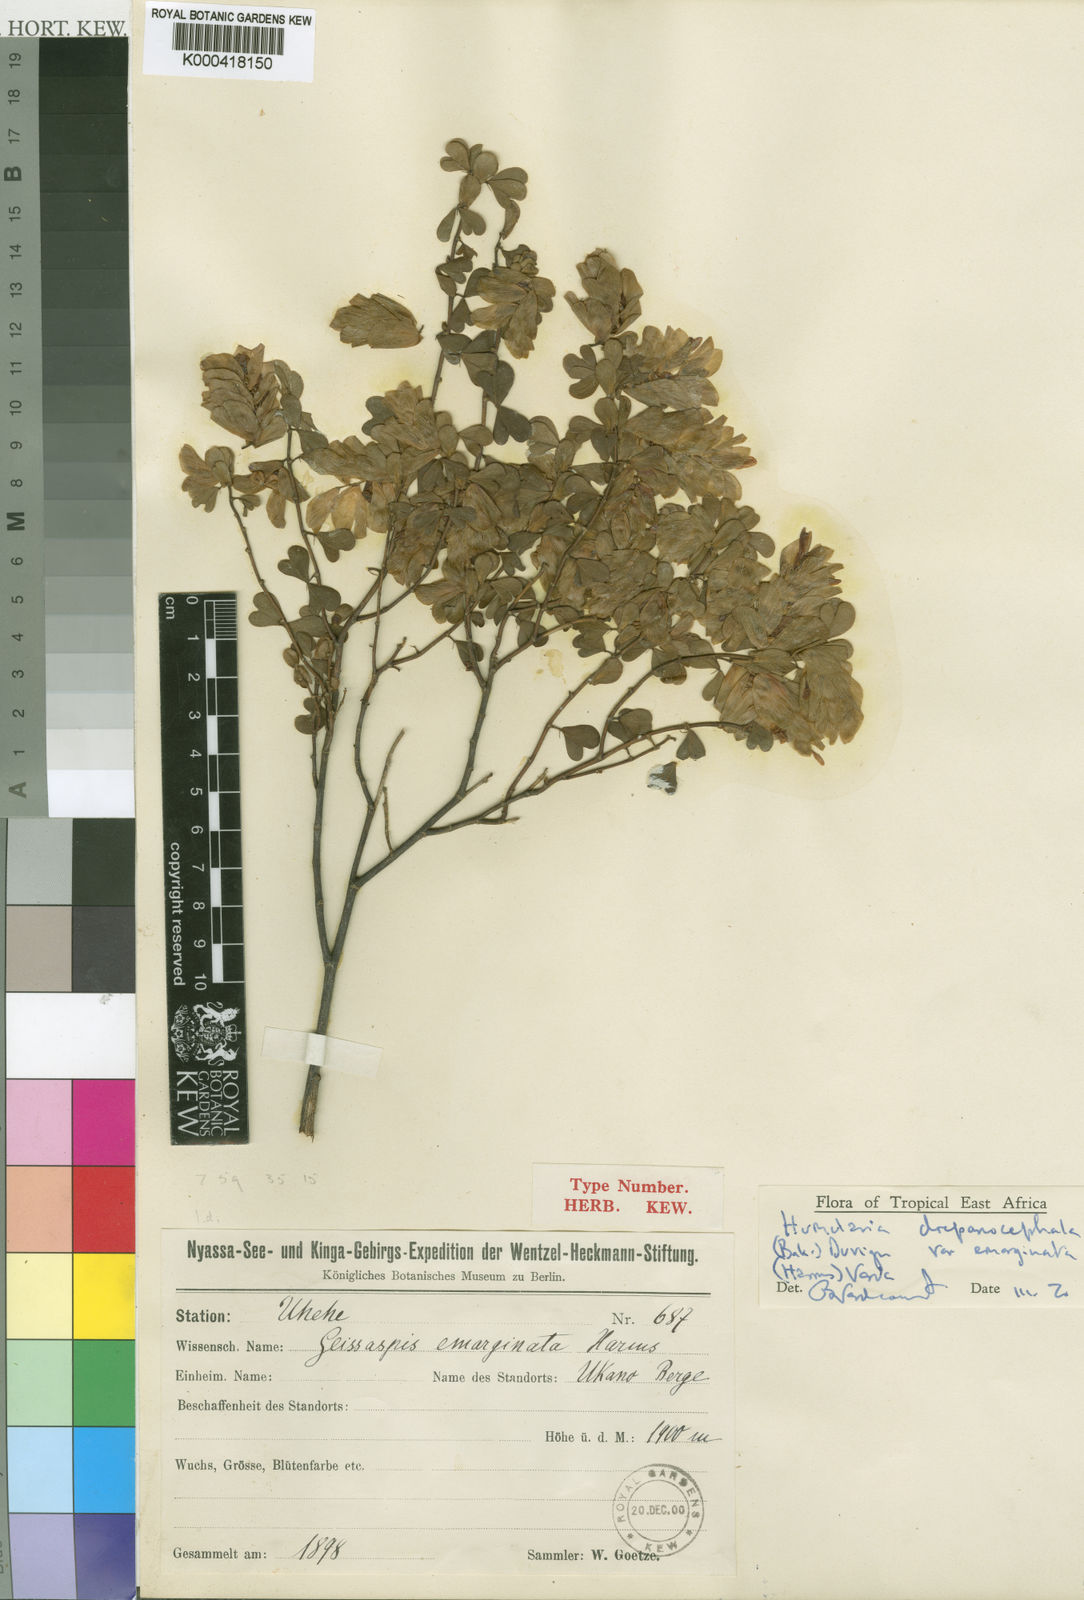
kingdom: Plantae
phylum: Tracheophyta
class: Magnoliopsida
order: Fabales
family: Fabaceae
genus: Humularia
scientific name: Humularia drepanocephala
